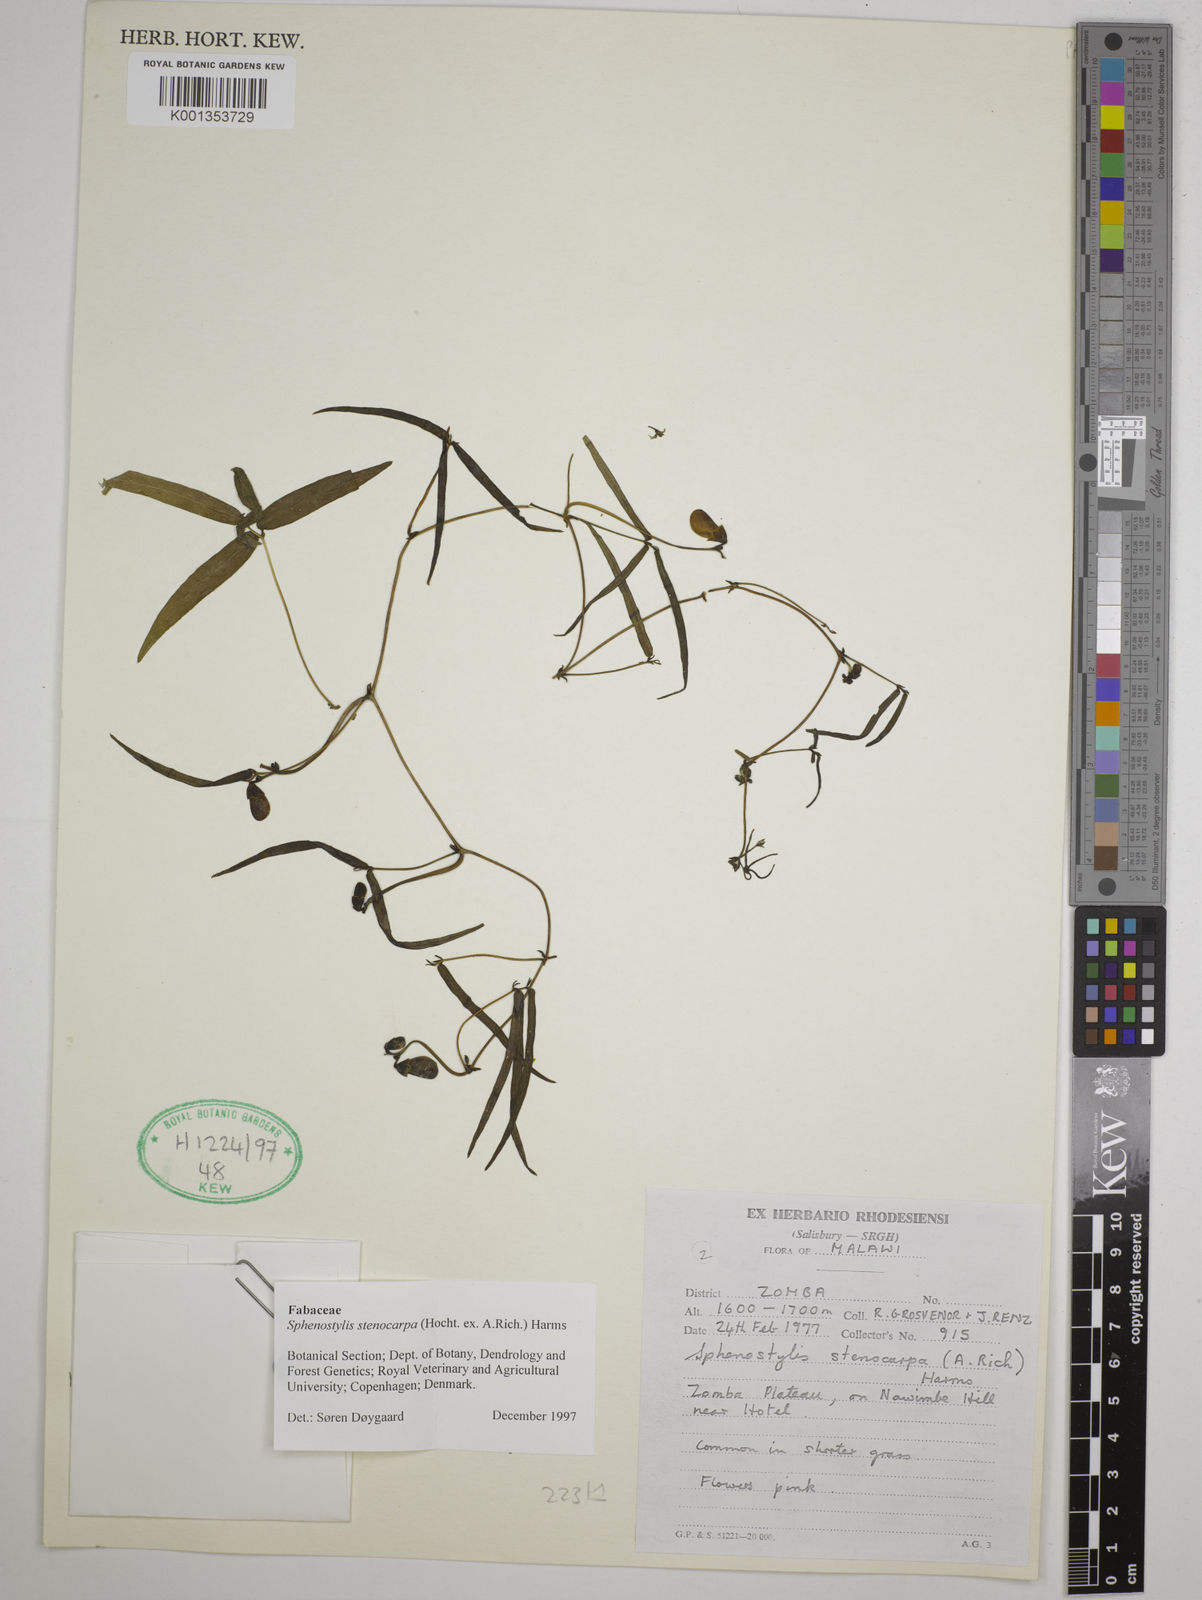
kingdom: Plantae
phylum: Tracheophyta
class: Magnoliopsida
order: Fabales
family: Fabaceae
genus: Sphenostylis
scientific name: Sphenostylis stenocarpa
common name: Yam-pea
